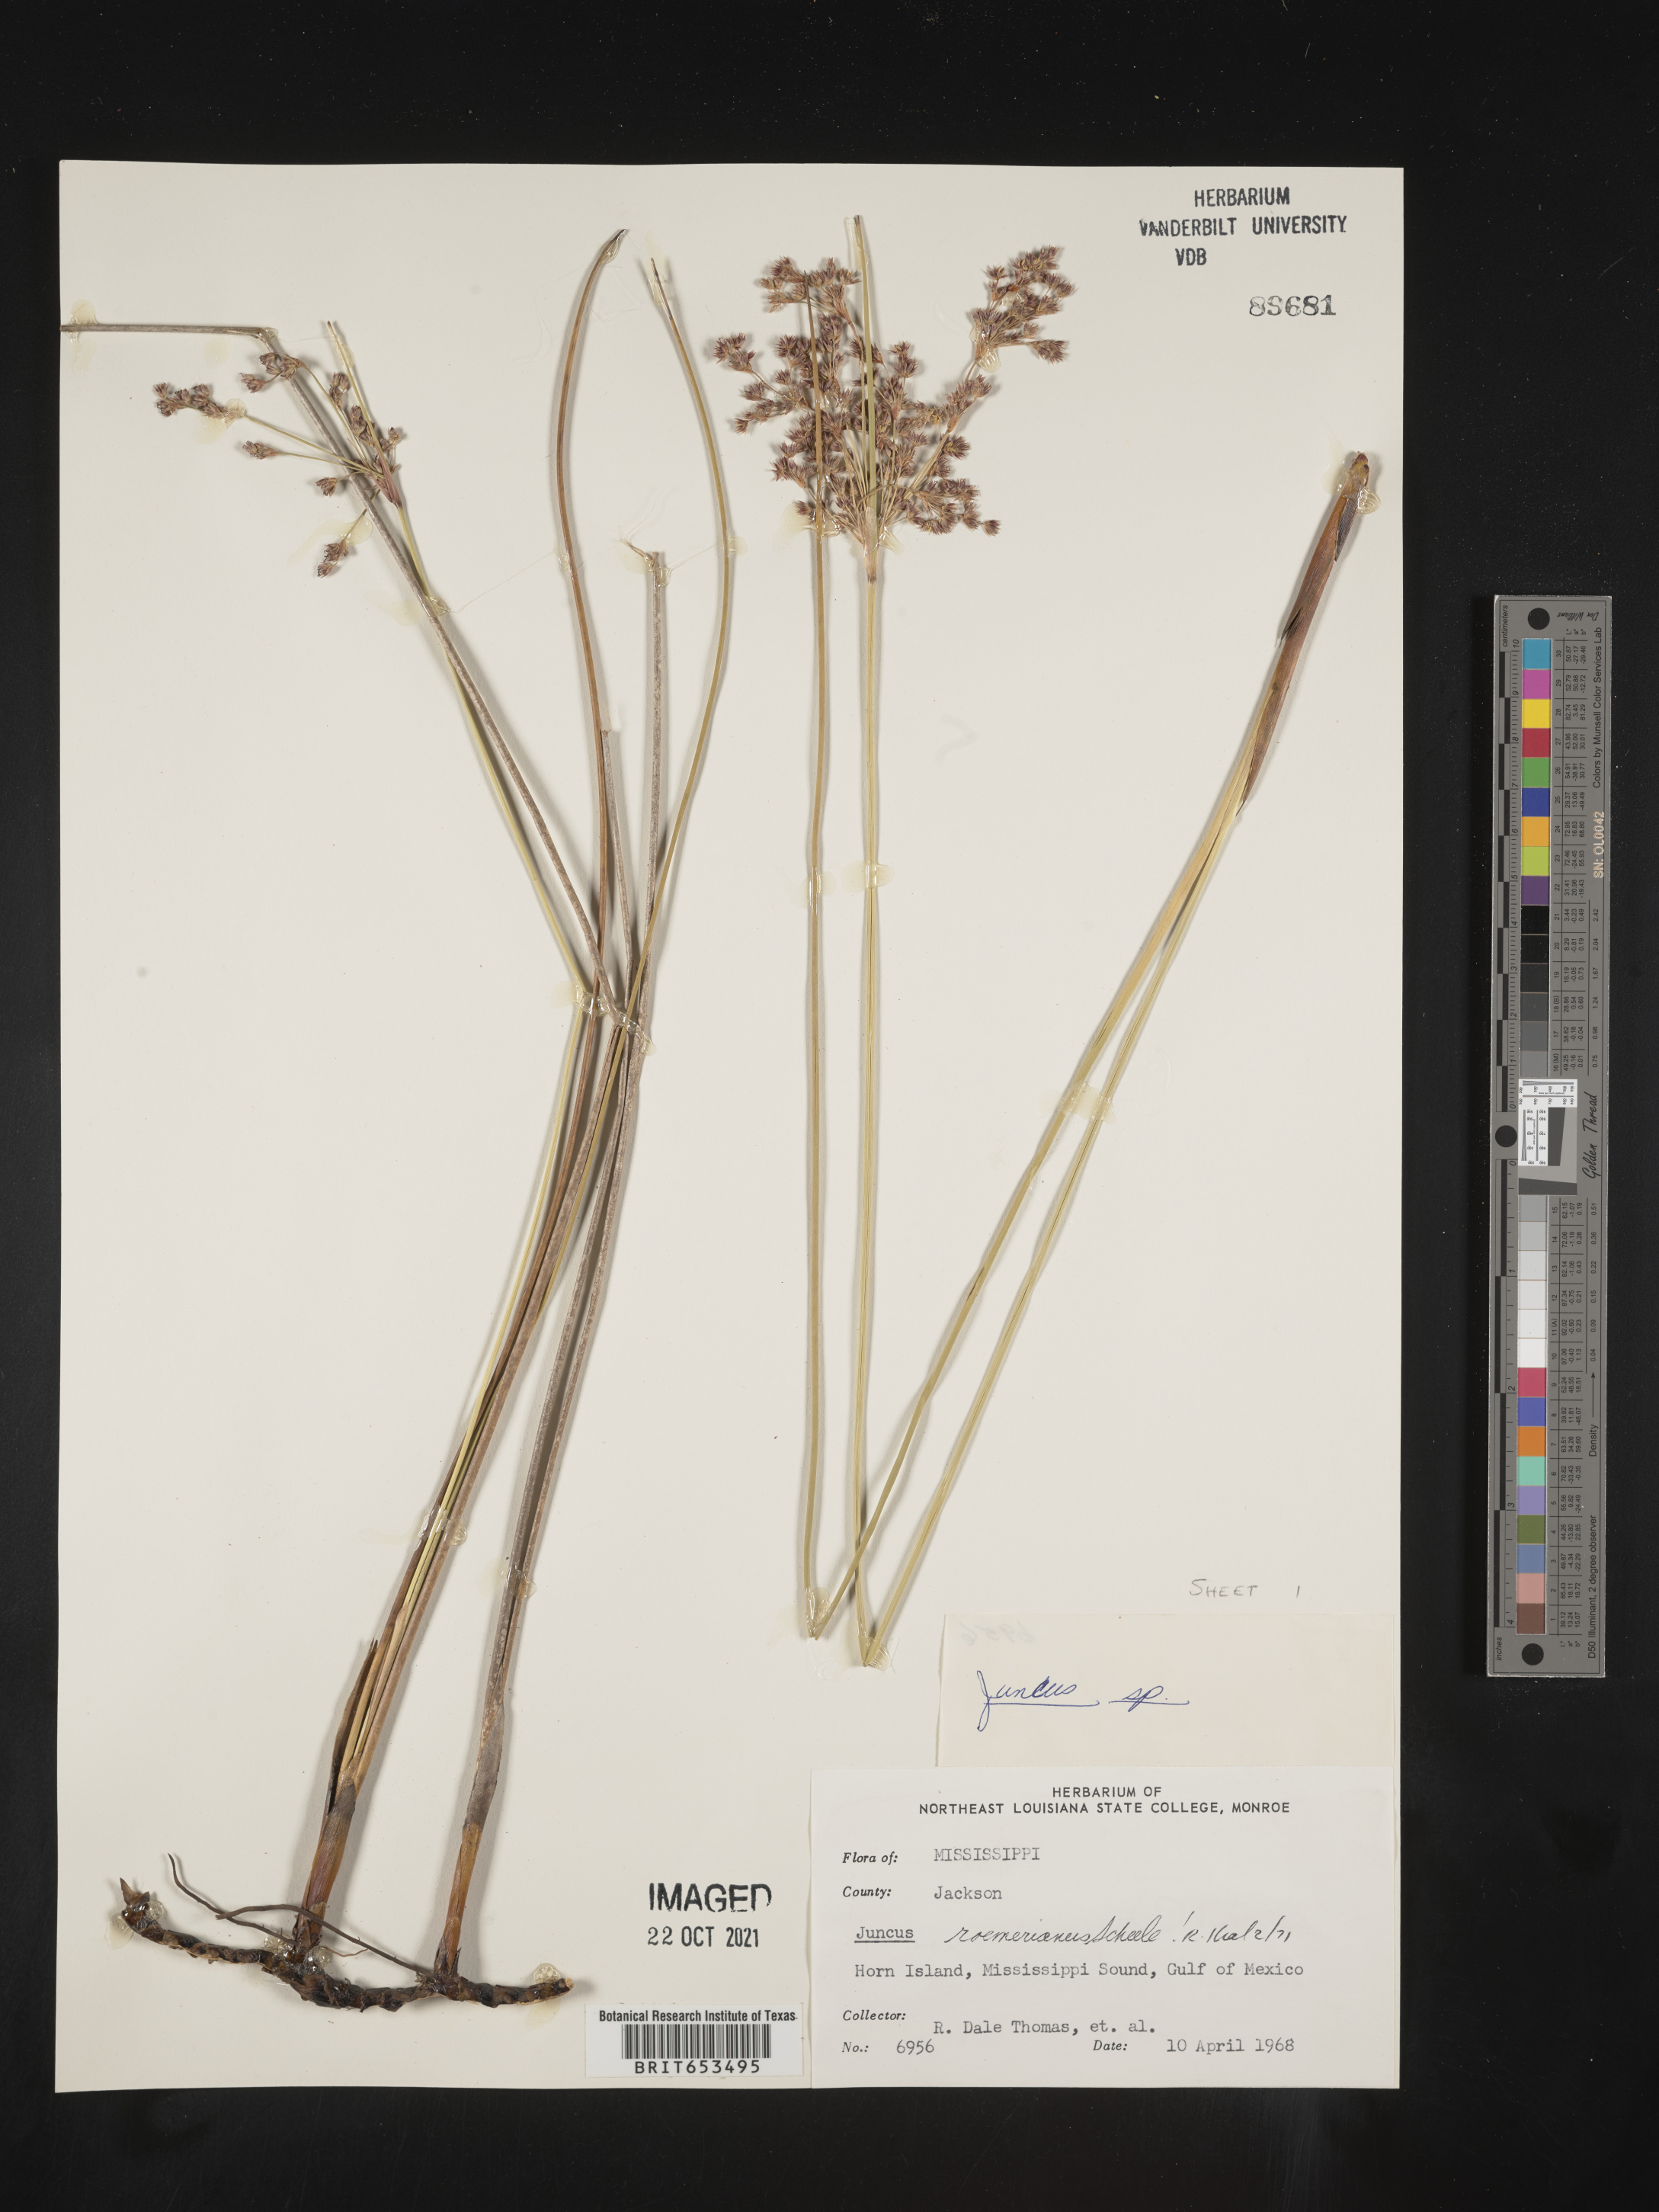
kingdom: Plantae
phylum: Tracheophyta
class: Liliopsida
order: Poales
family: Juncaceae
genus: Juncus
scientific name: Juncus roemerianus
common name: Roemer's rush
